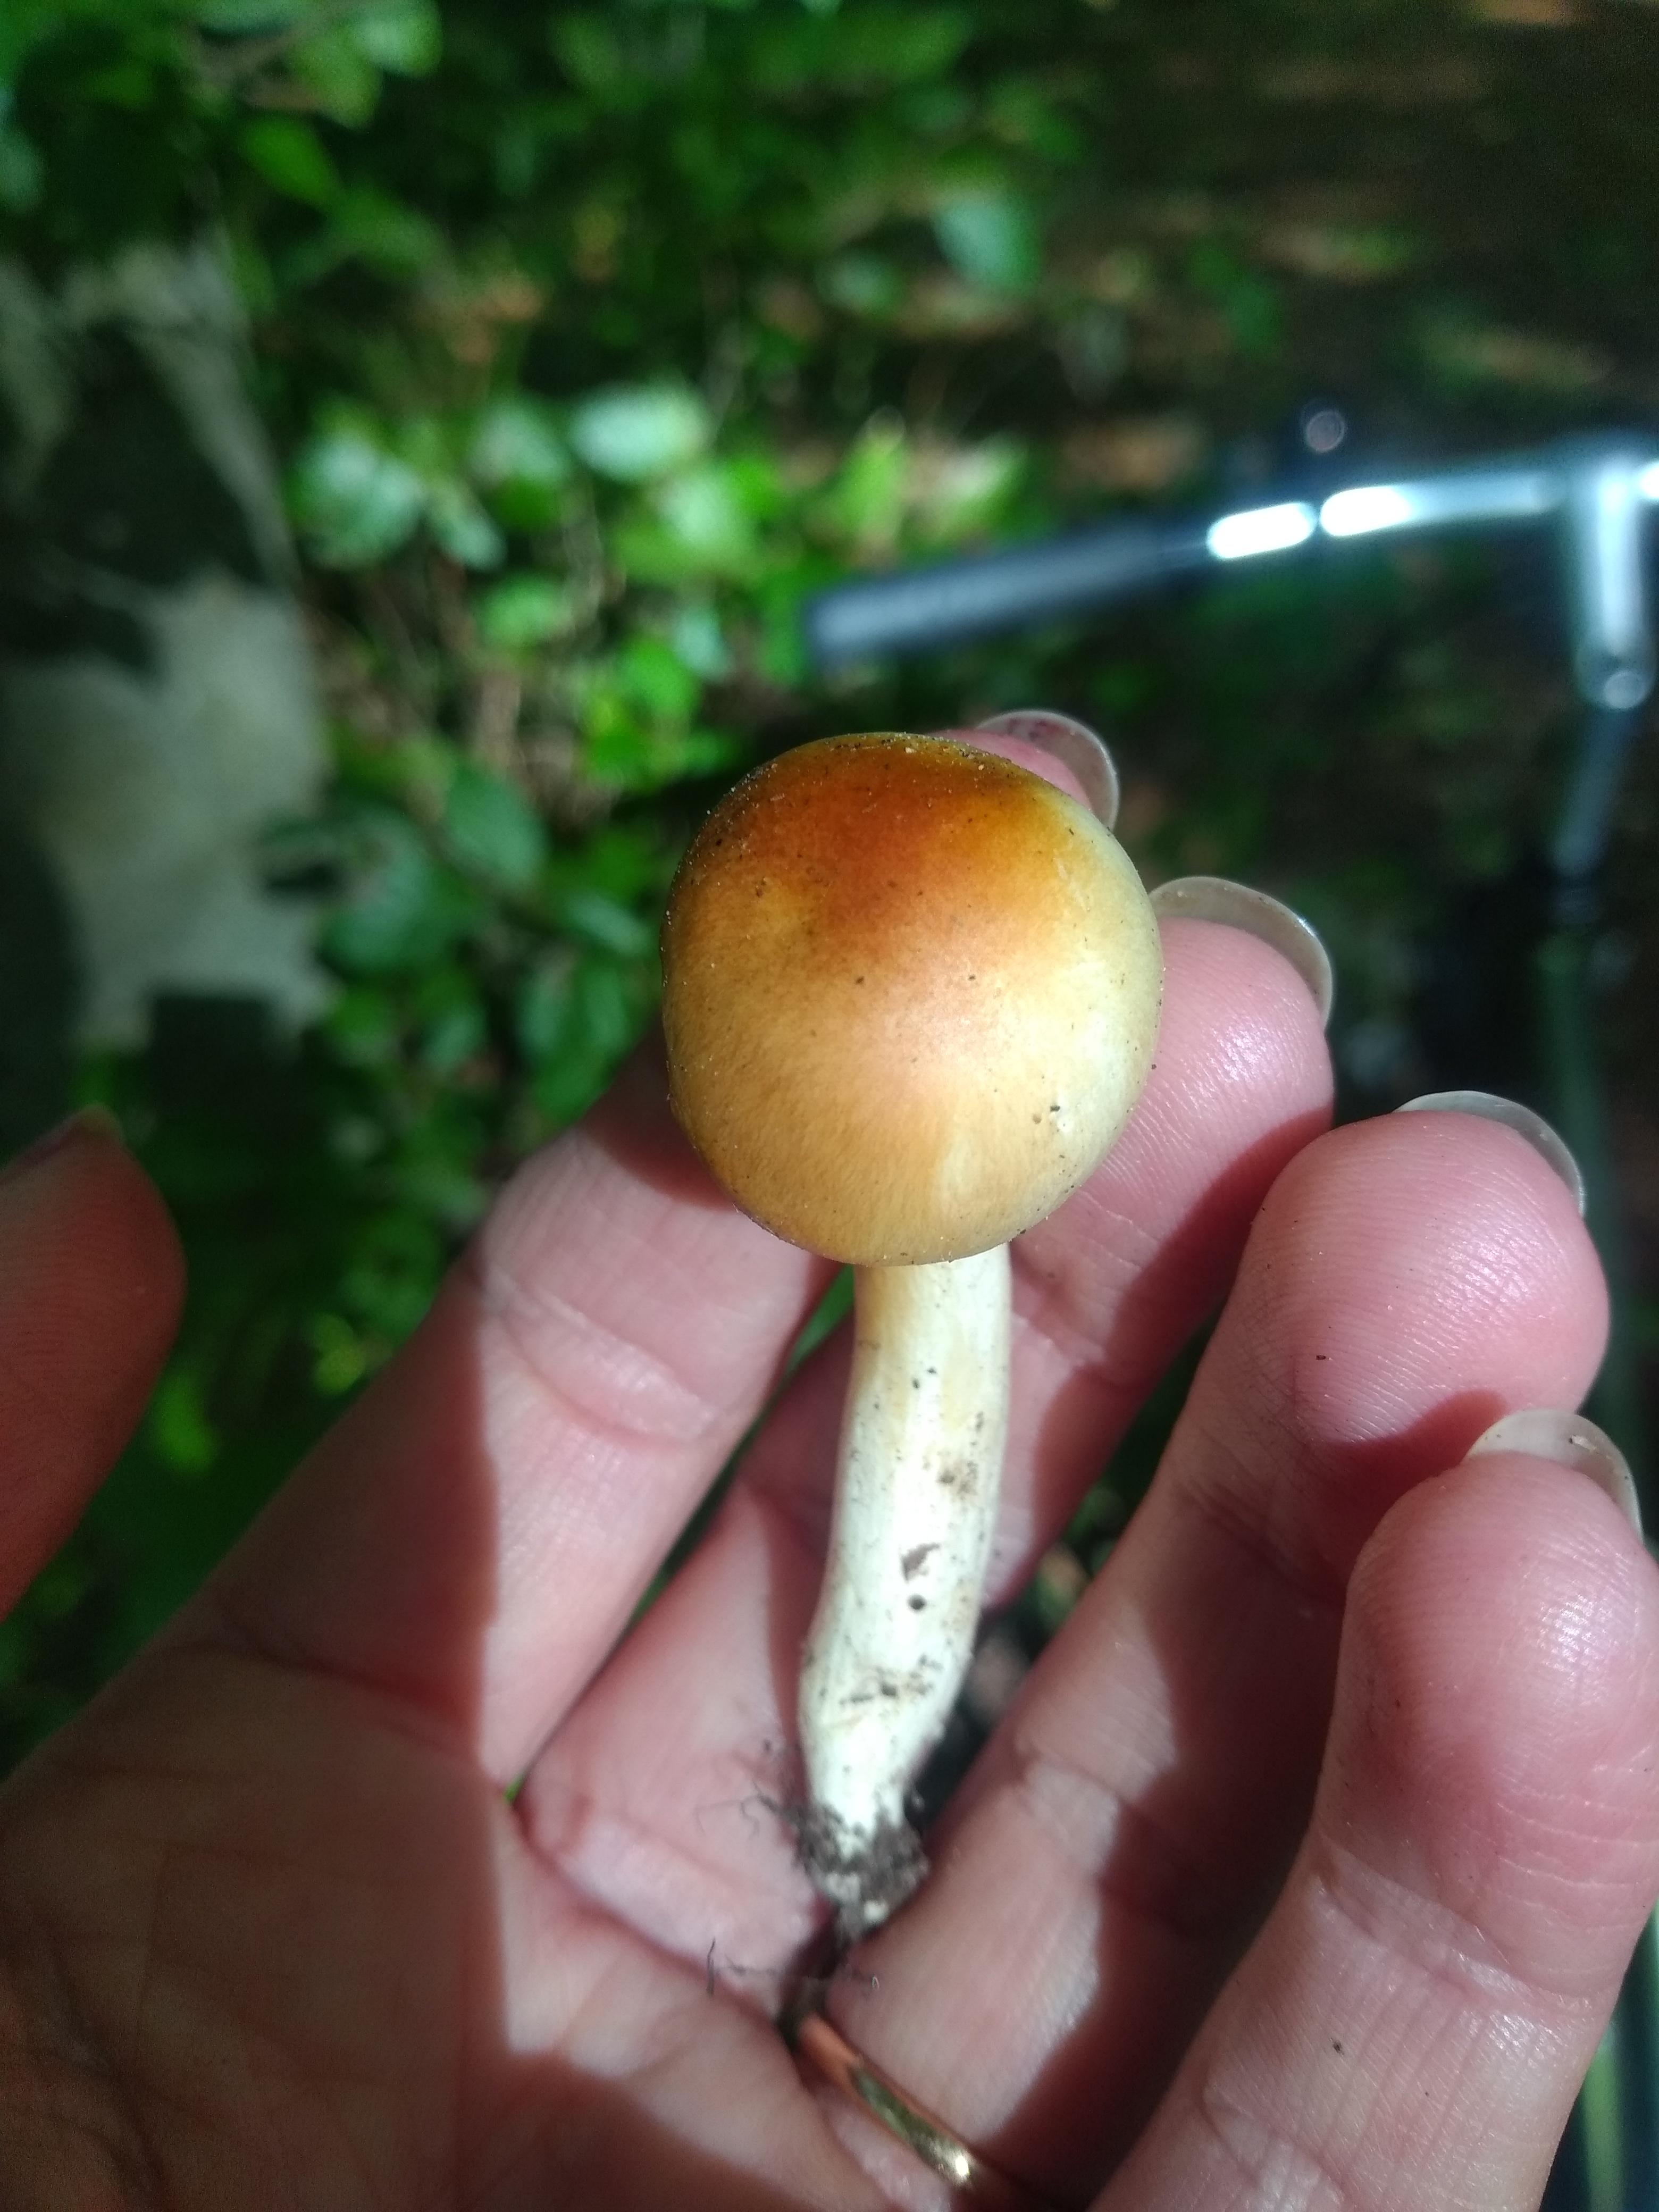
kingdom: Fungi
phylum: Basidiomycota
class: Agaricomycetes
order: Agaricales
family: Hygrophoraceae
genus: Hygrophorus
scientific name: Hygrophorus discoxanthus
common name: ildelugtende sneglehat
